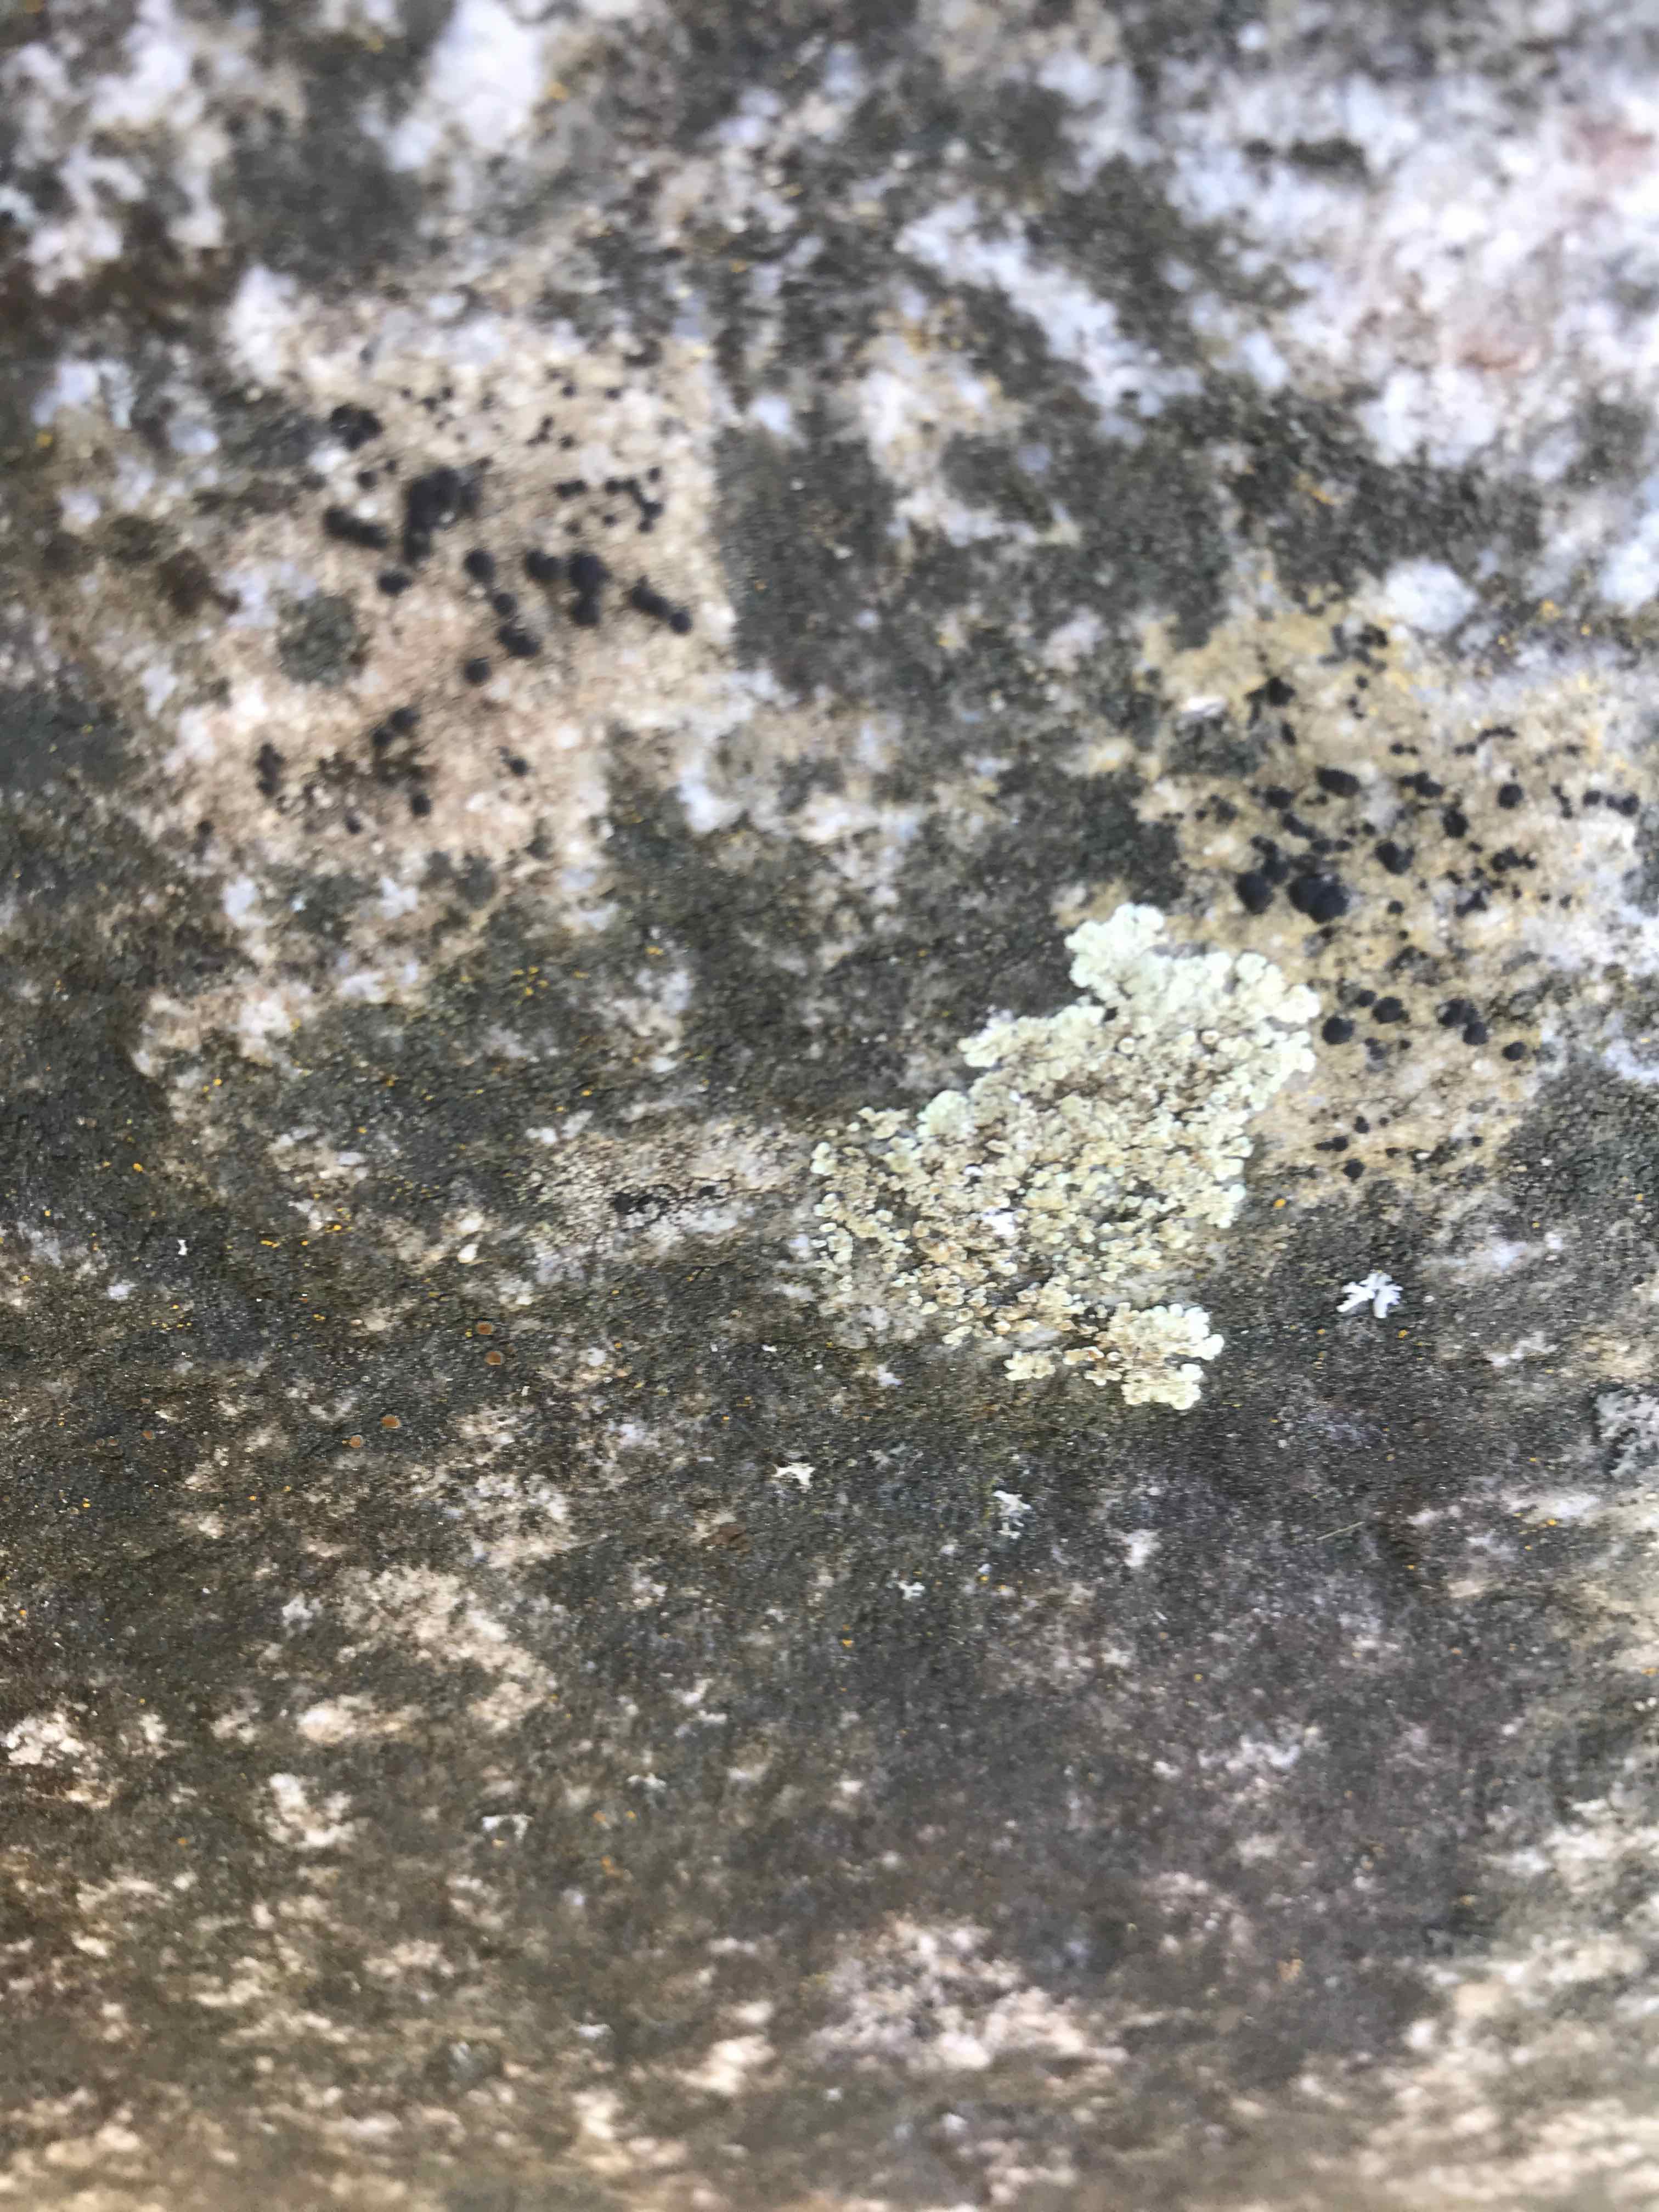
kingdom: Fungi
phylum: Ascomycota
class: Lecanoromycetes
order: Lecanorales
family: Lecanoraceae
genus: Protoparmeliopsis
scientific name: Protoparmeliopsis muralis
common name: randfliget kantskivelav
